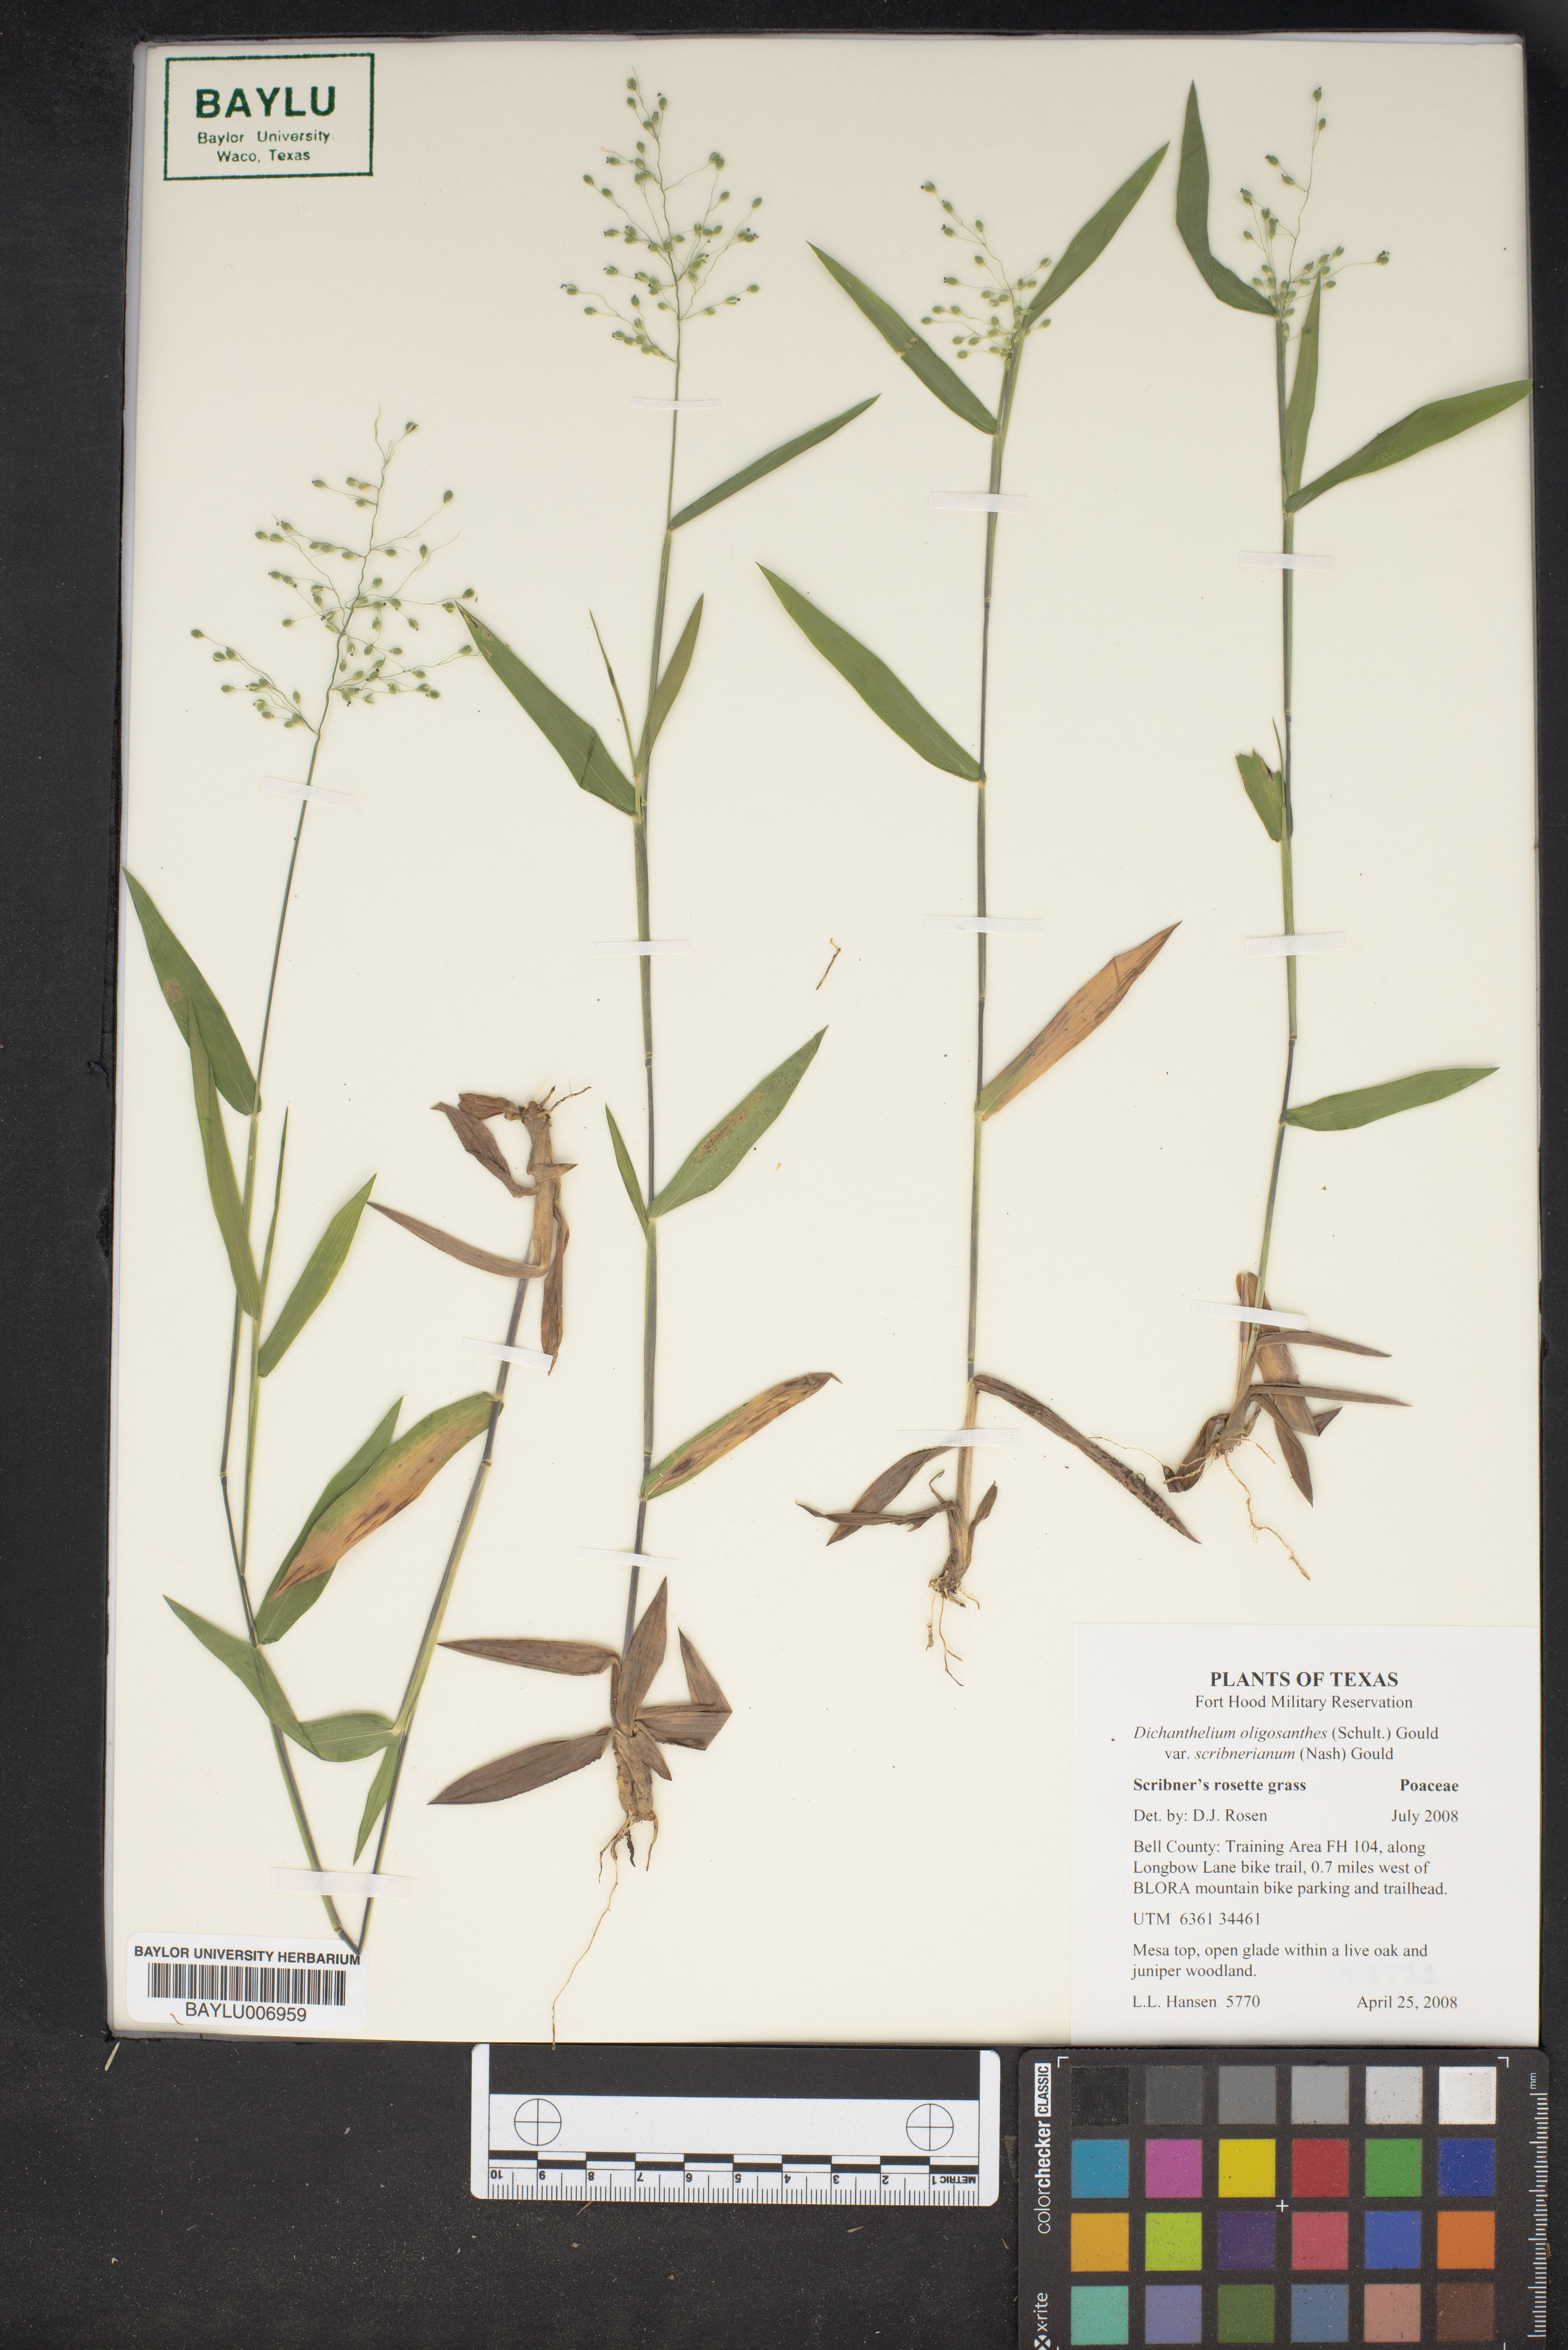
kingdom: Plantae
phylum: Tracheophyta
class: Liliopsida
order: Poales
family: Poaceae
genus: Dichanthelium
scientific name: Dichanthelium scribnerianum
